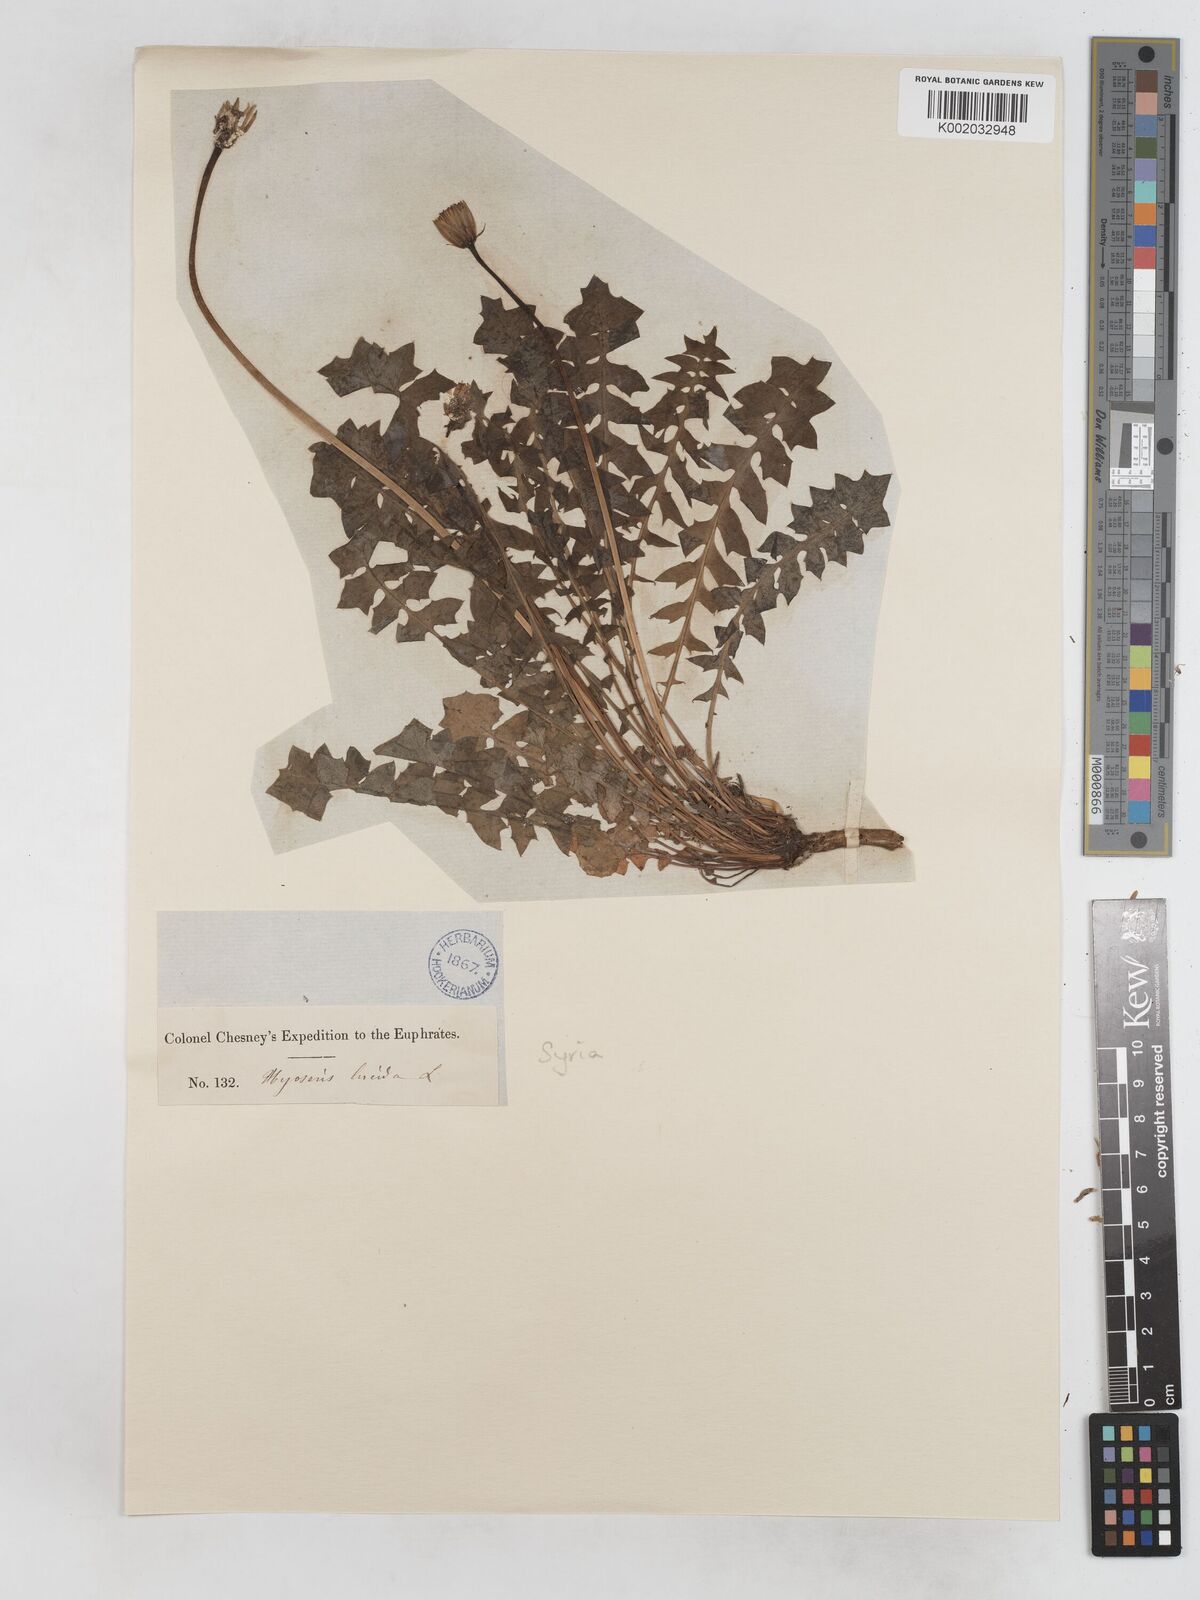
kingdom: Plantae
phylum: Tracheophyta
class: Magnoliopsida
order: Asterales
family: Asteraceae
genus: Hyoseris
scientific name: Hyoseris radiata
